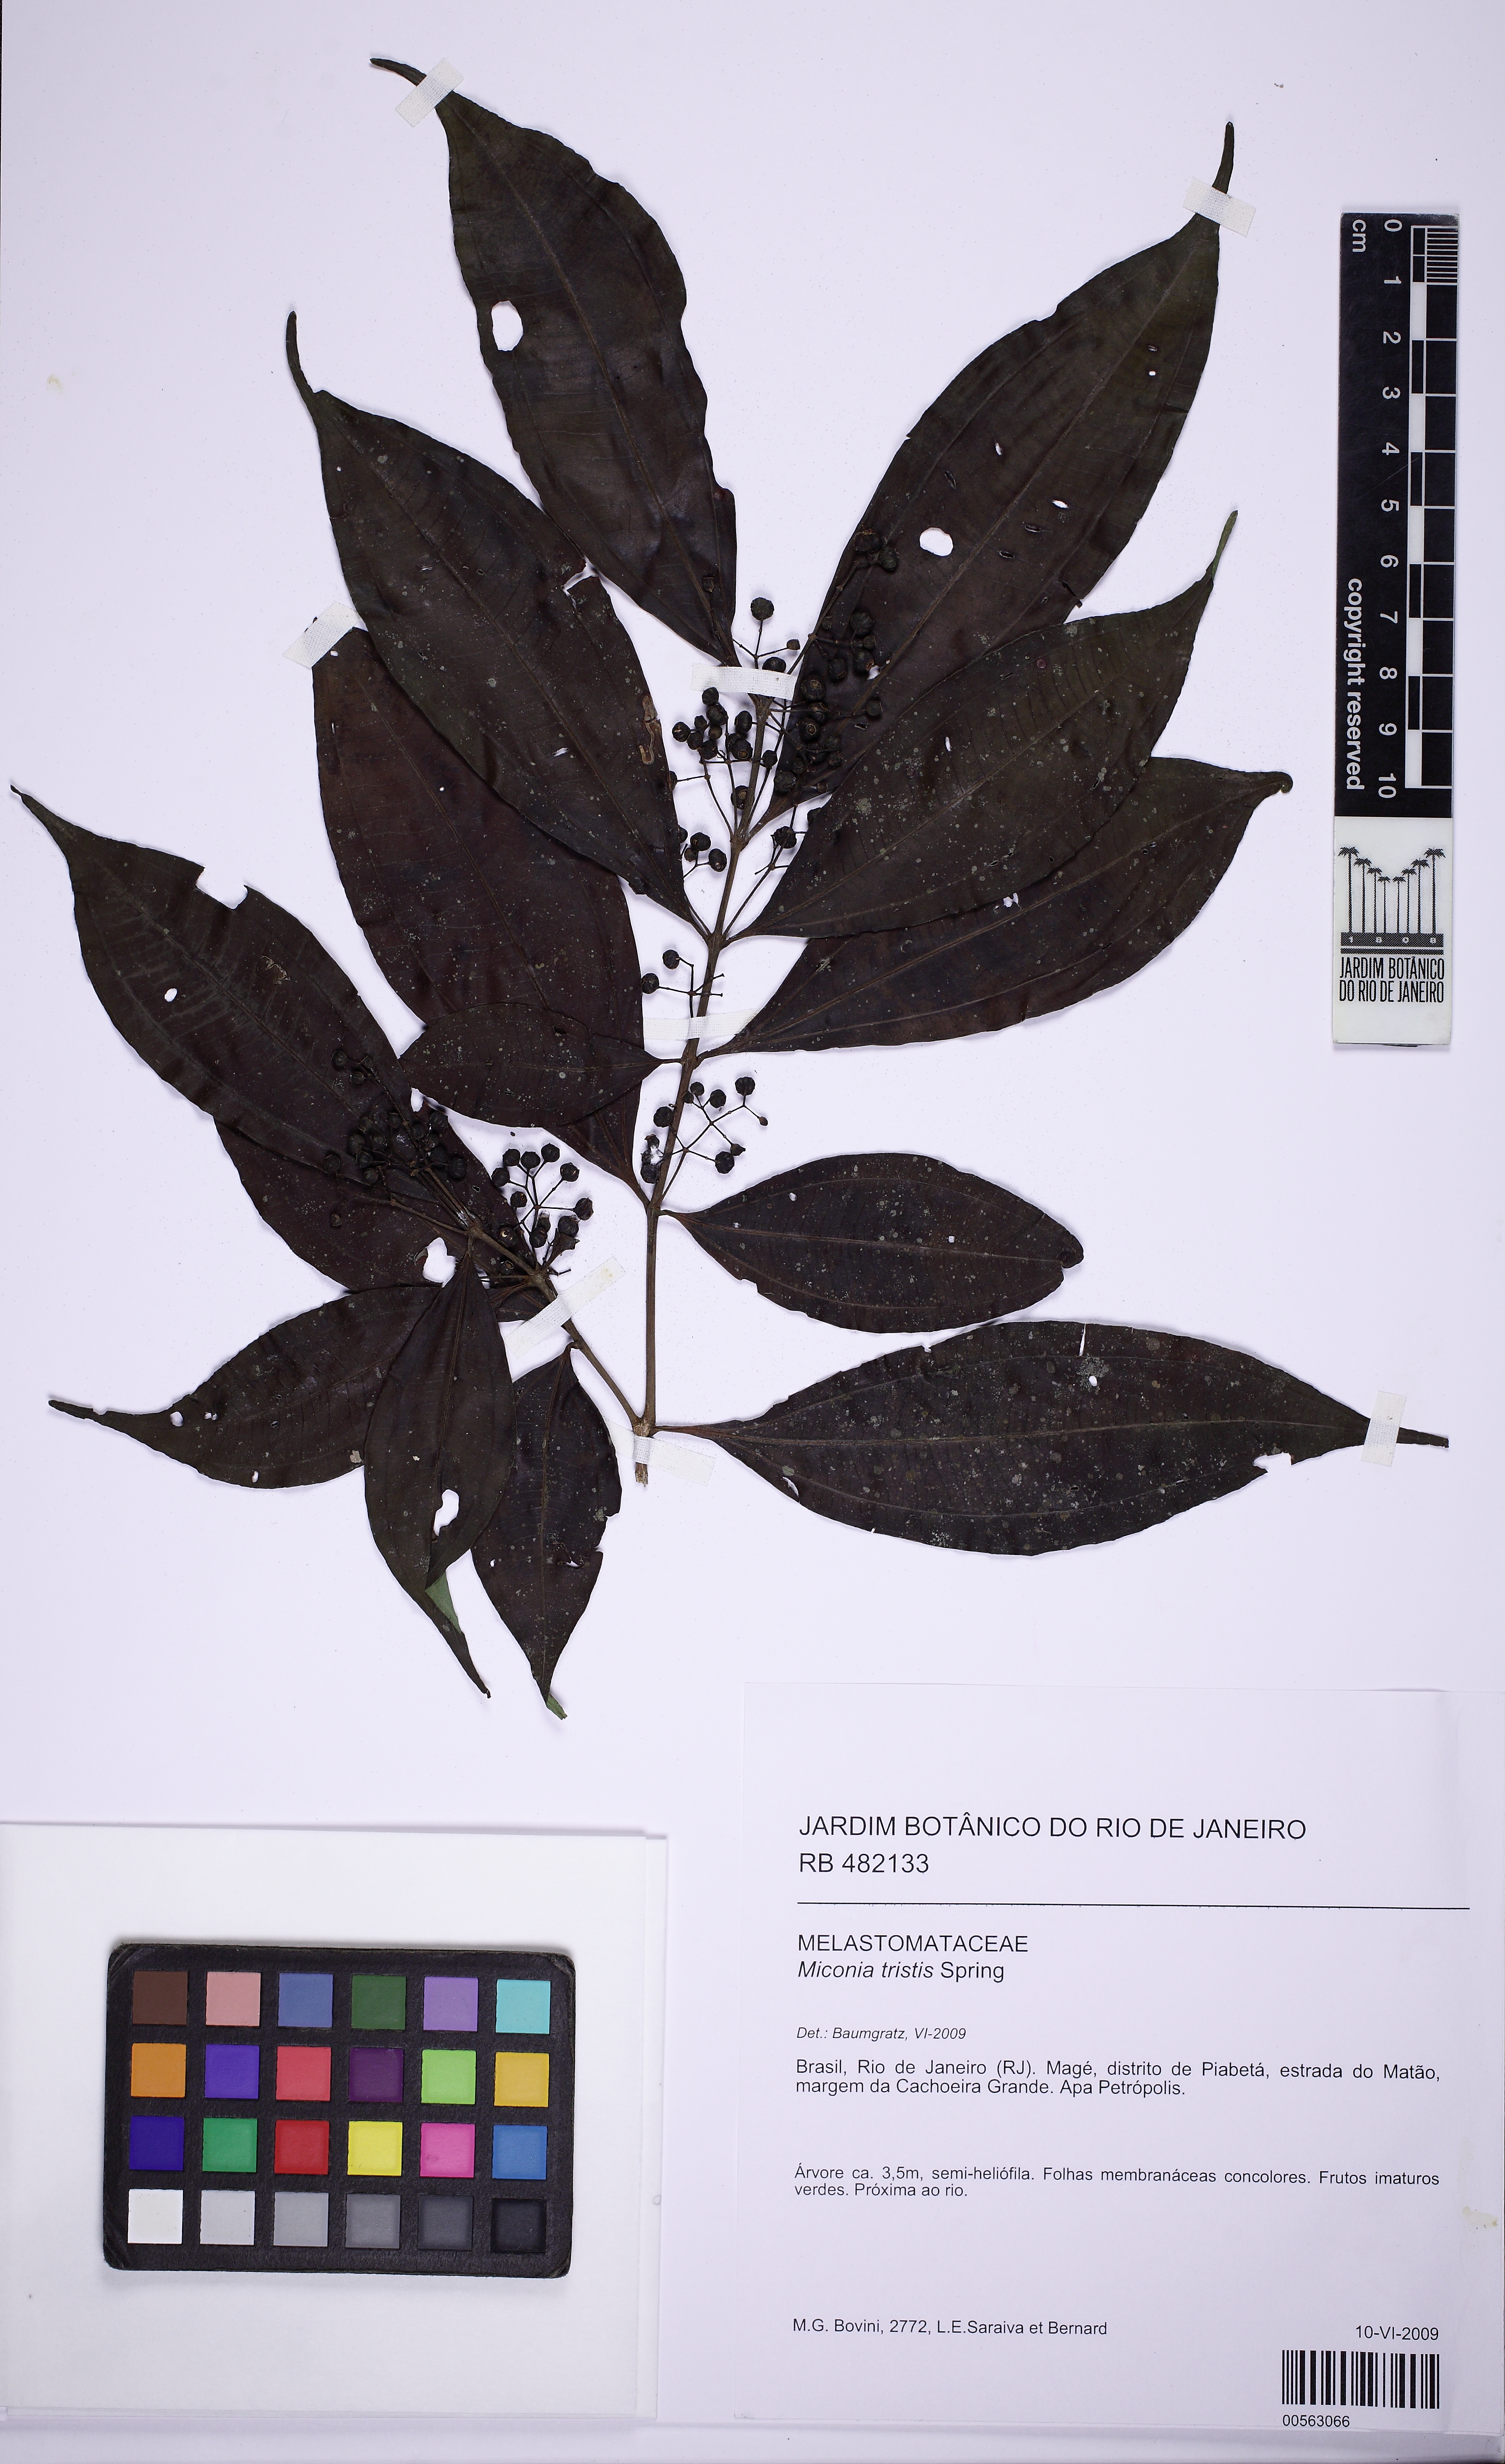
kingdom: Plantae
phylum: Tracheophyta
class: Magnoliopsida
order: Myrtales
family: Melastomataceae
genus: Miconia
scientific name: Miconia tristis
